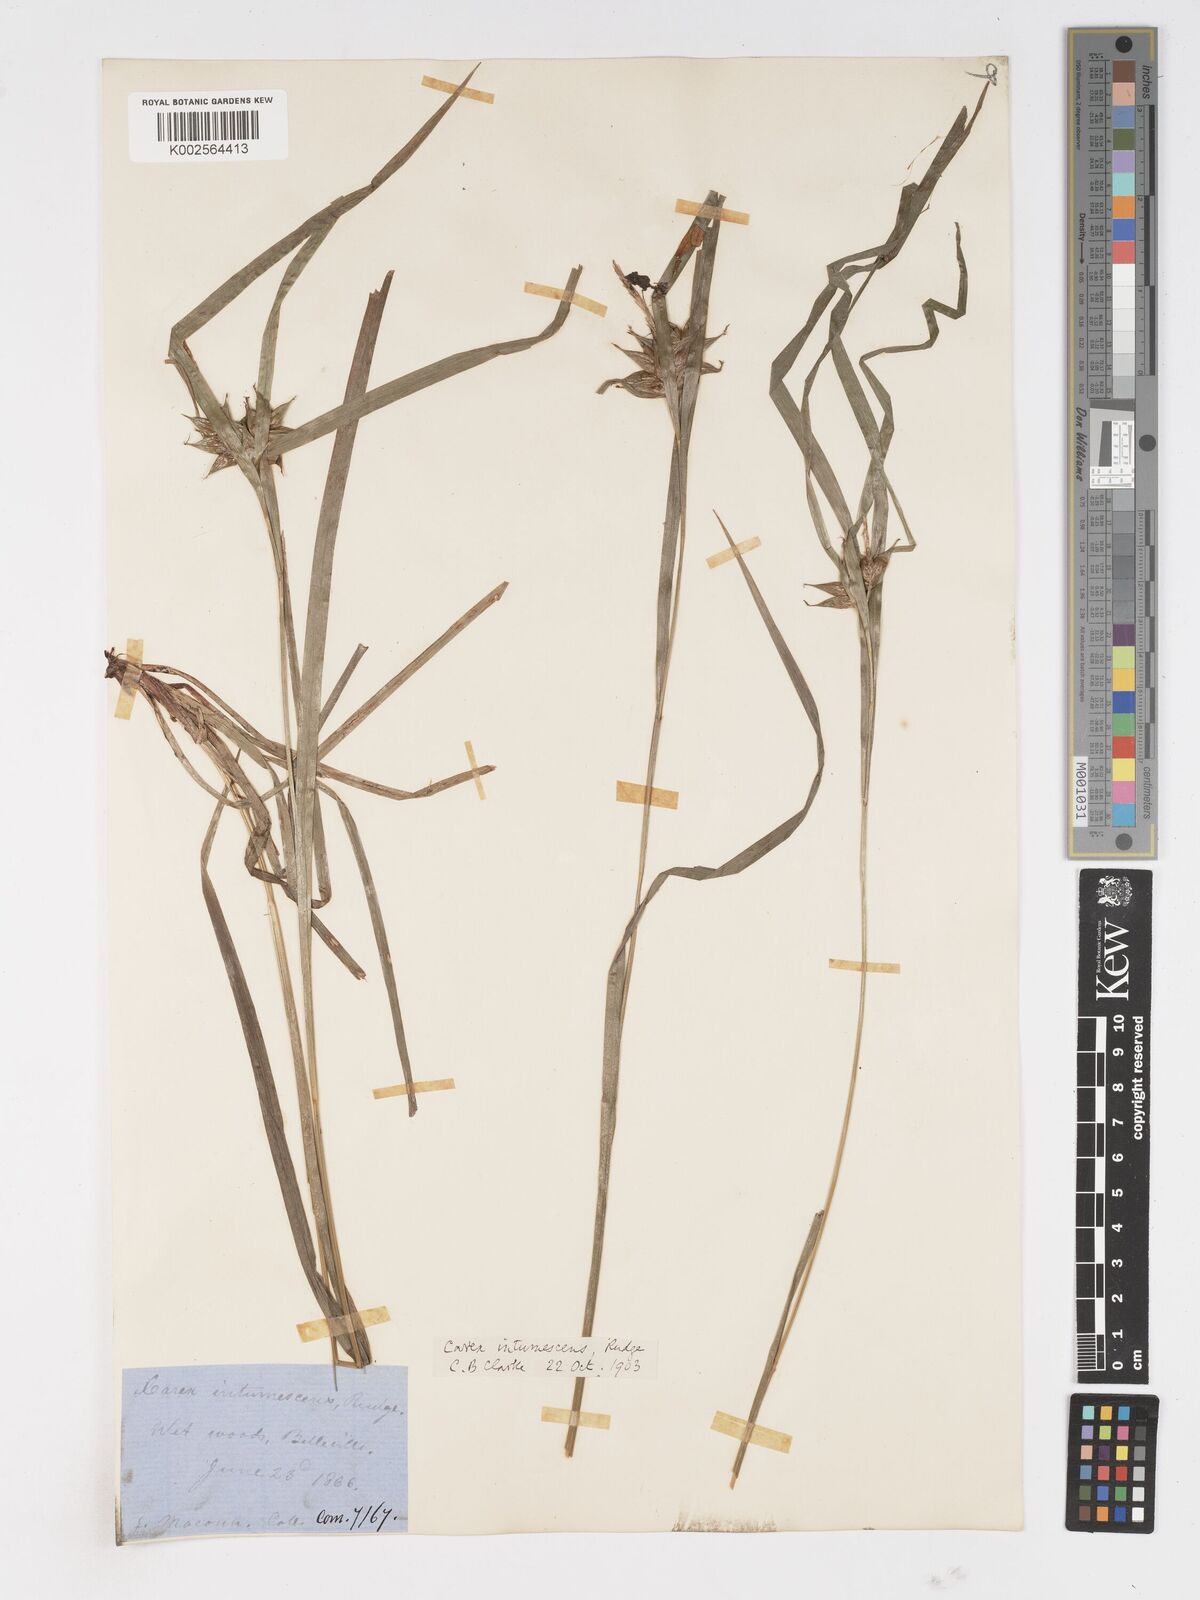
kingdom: Plantae
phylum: Tracheophyta
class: Liliopsida
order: Poales
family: Cyperaceae
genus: Carex
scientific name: Carex intumescens
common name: Greater bladder sedge
